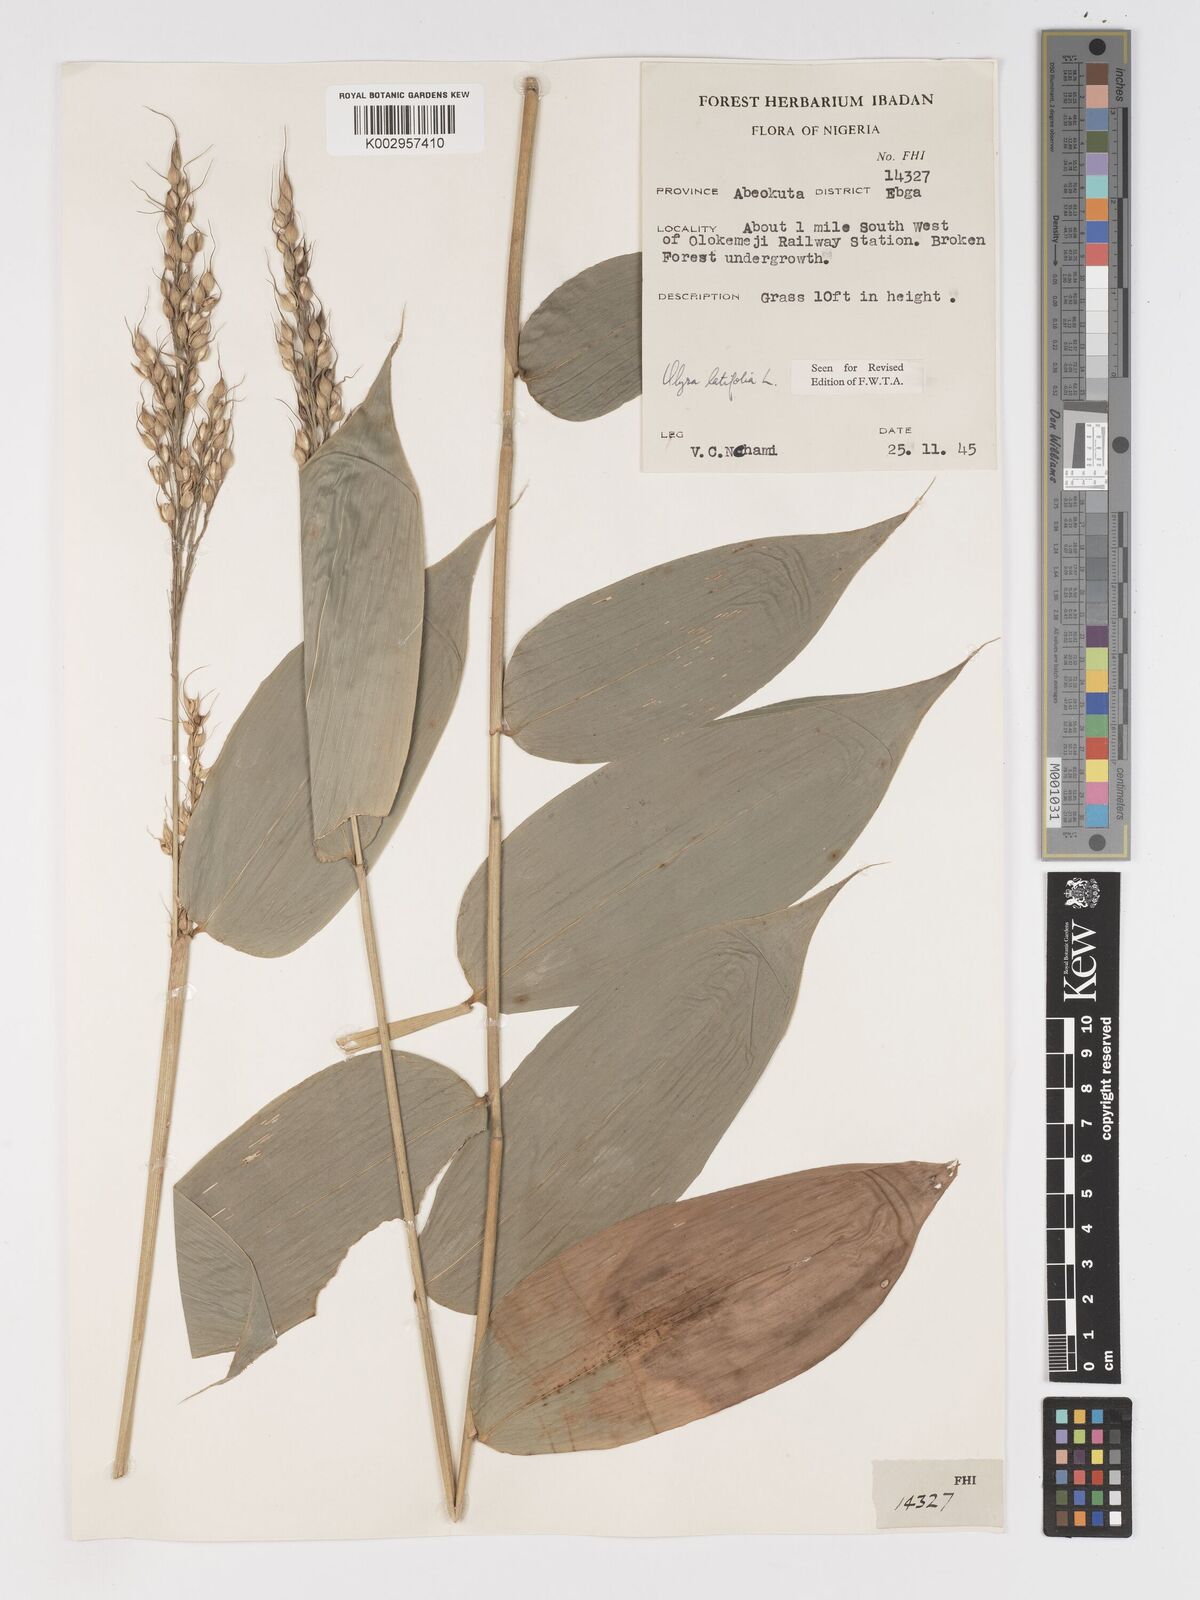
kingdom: Plantae
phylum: Tracheophyta
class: Liliopsida
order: Poales
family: Poaceae
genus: Olyra
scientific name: Olyra latifolia
